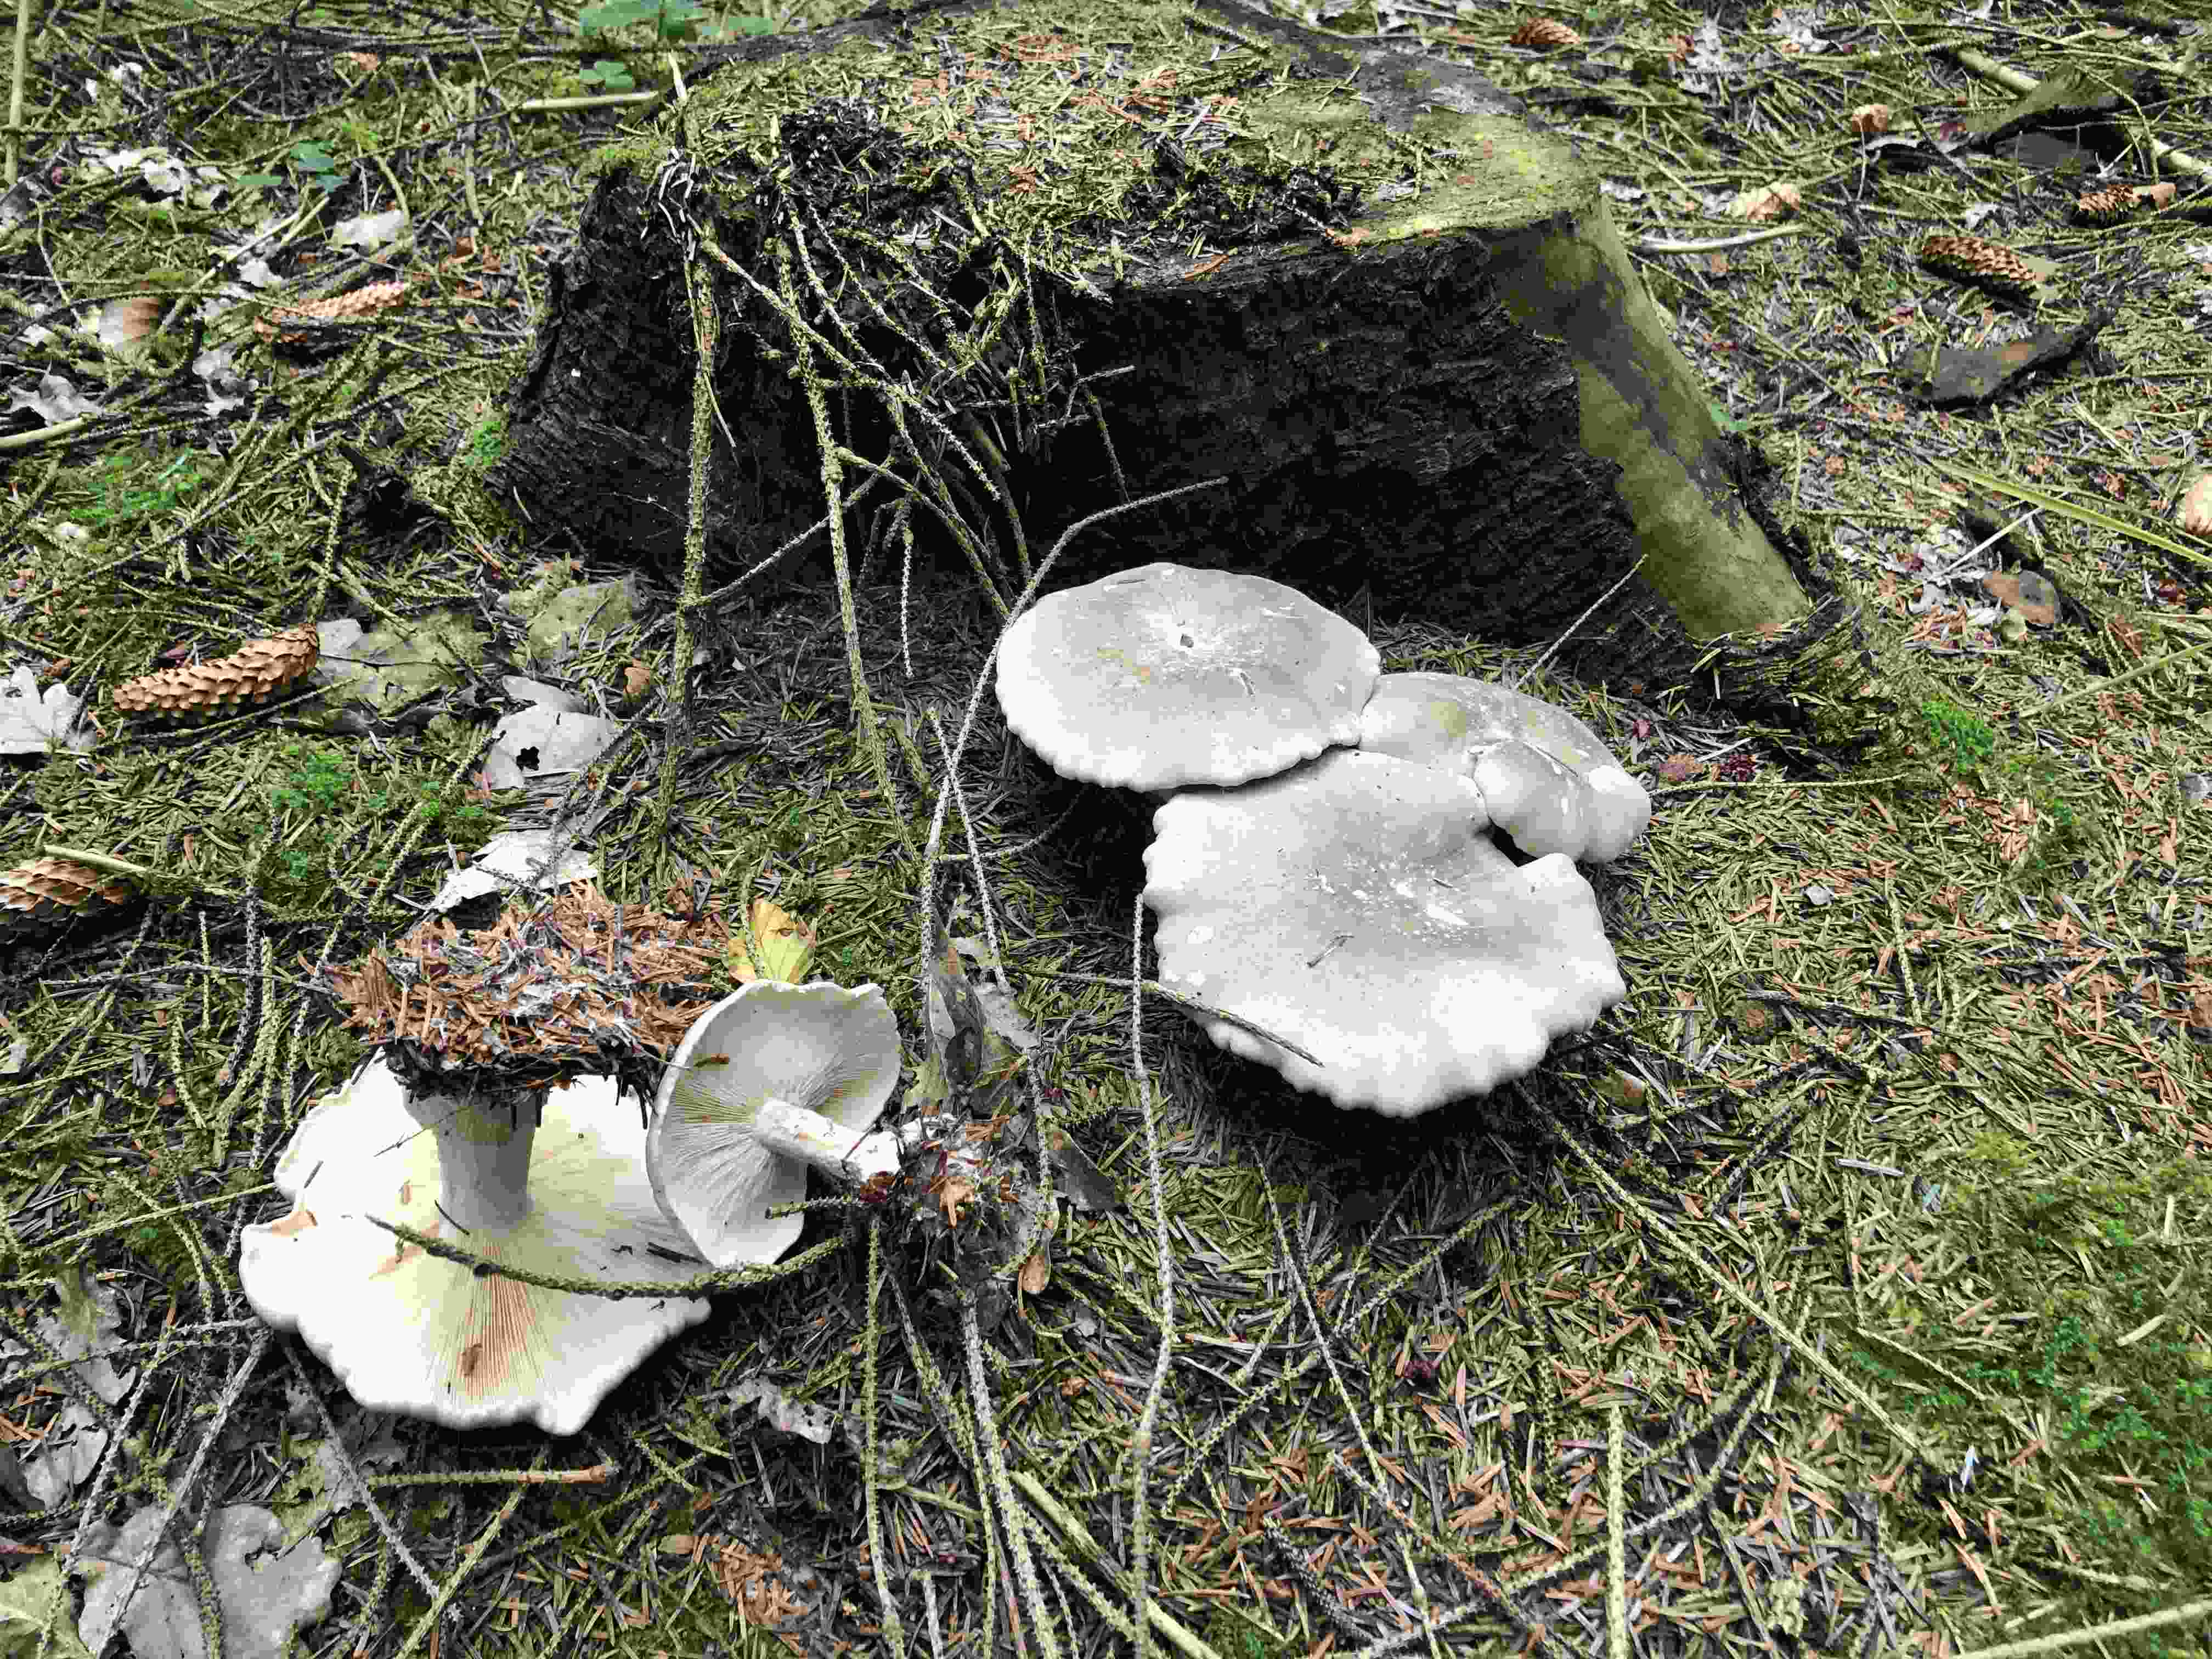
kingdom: Fungi
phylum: Basidiomycota
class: Agaricomycetes
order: Agaricales
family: Tricholomataceae
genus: Clitocybe
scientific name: Clitocybe nebularis
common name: tåge-tragthat
